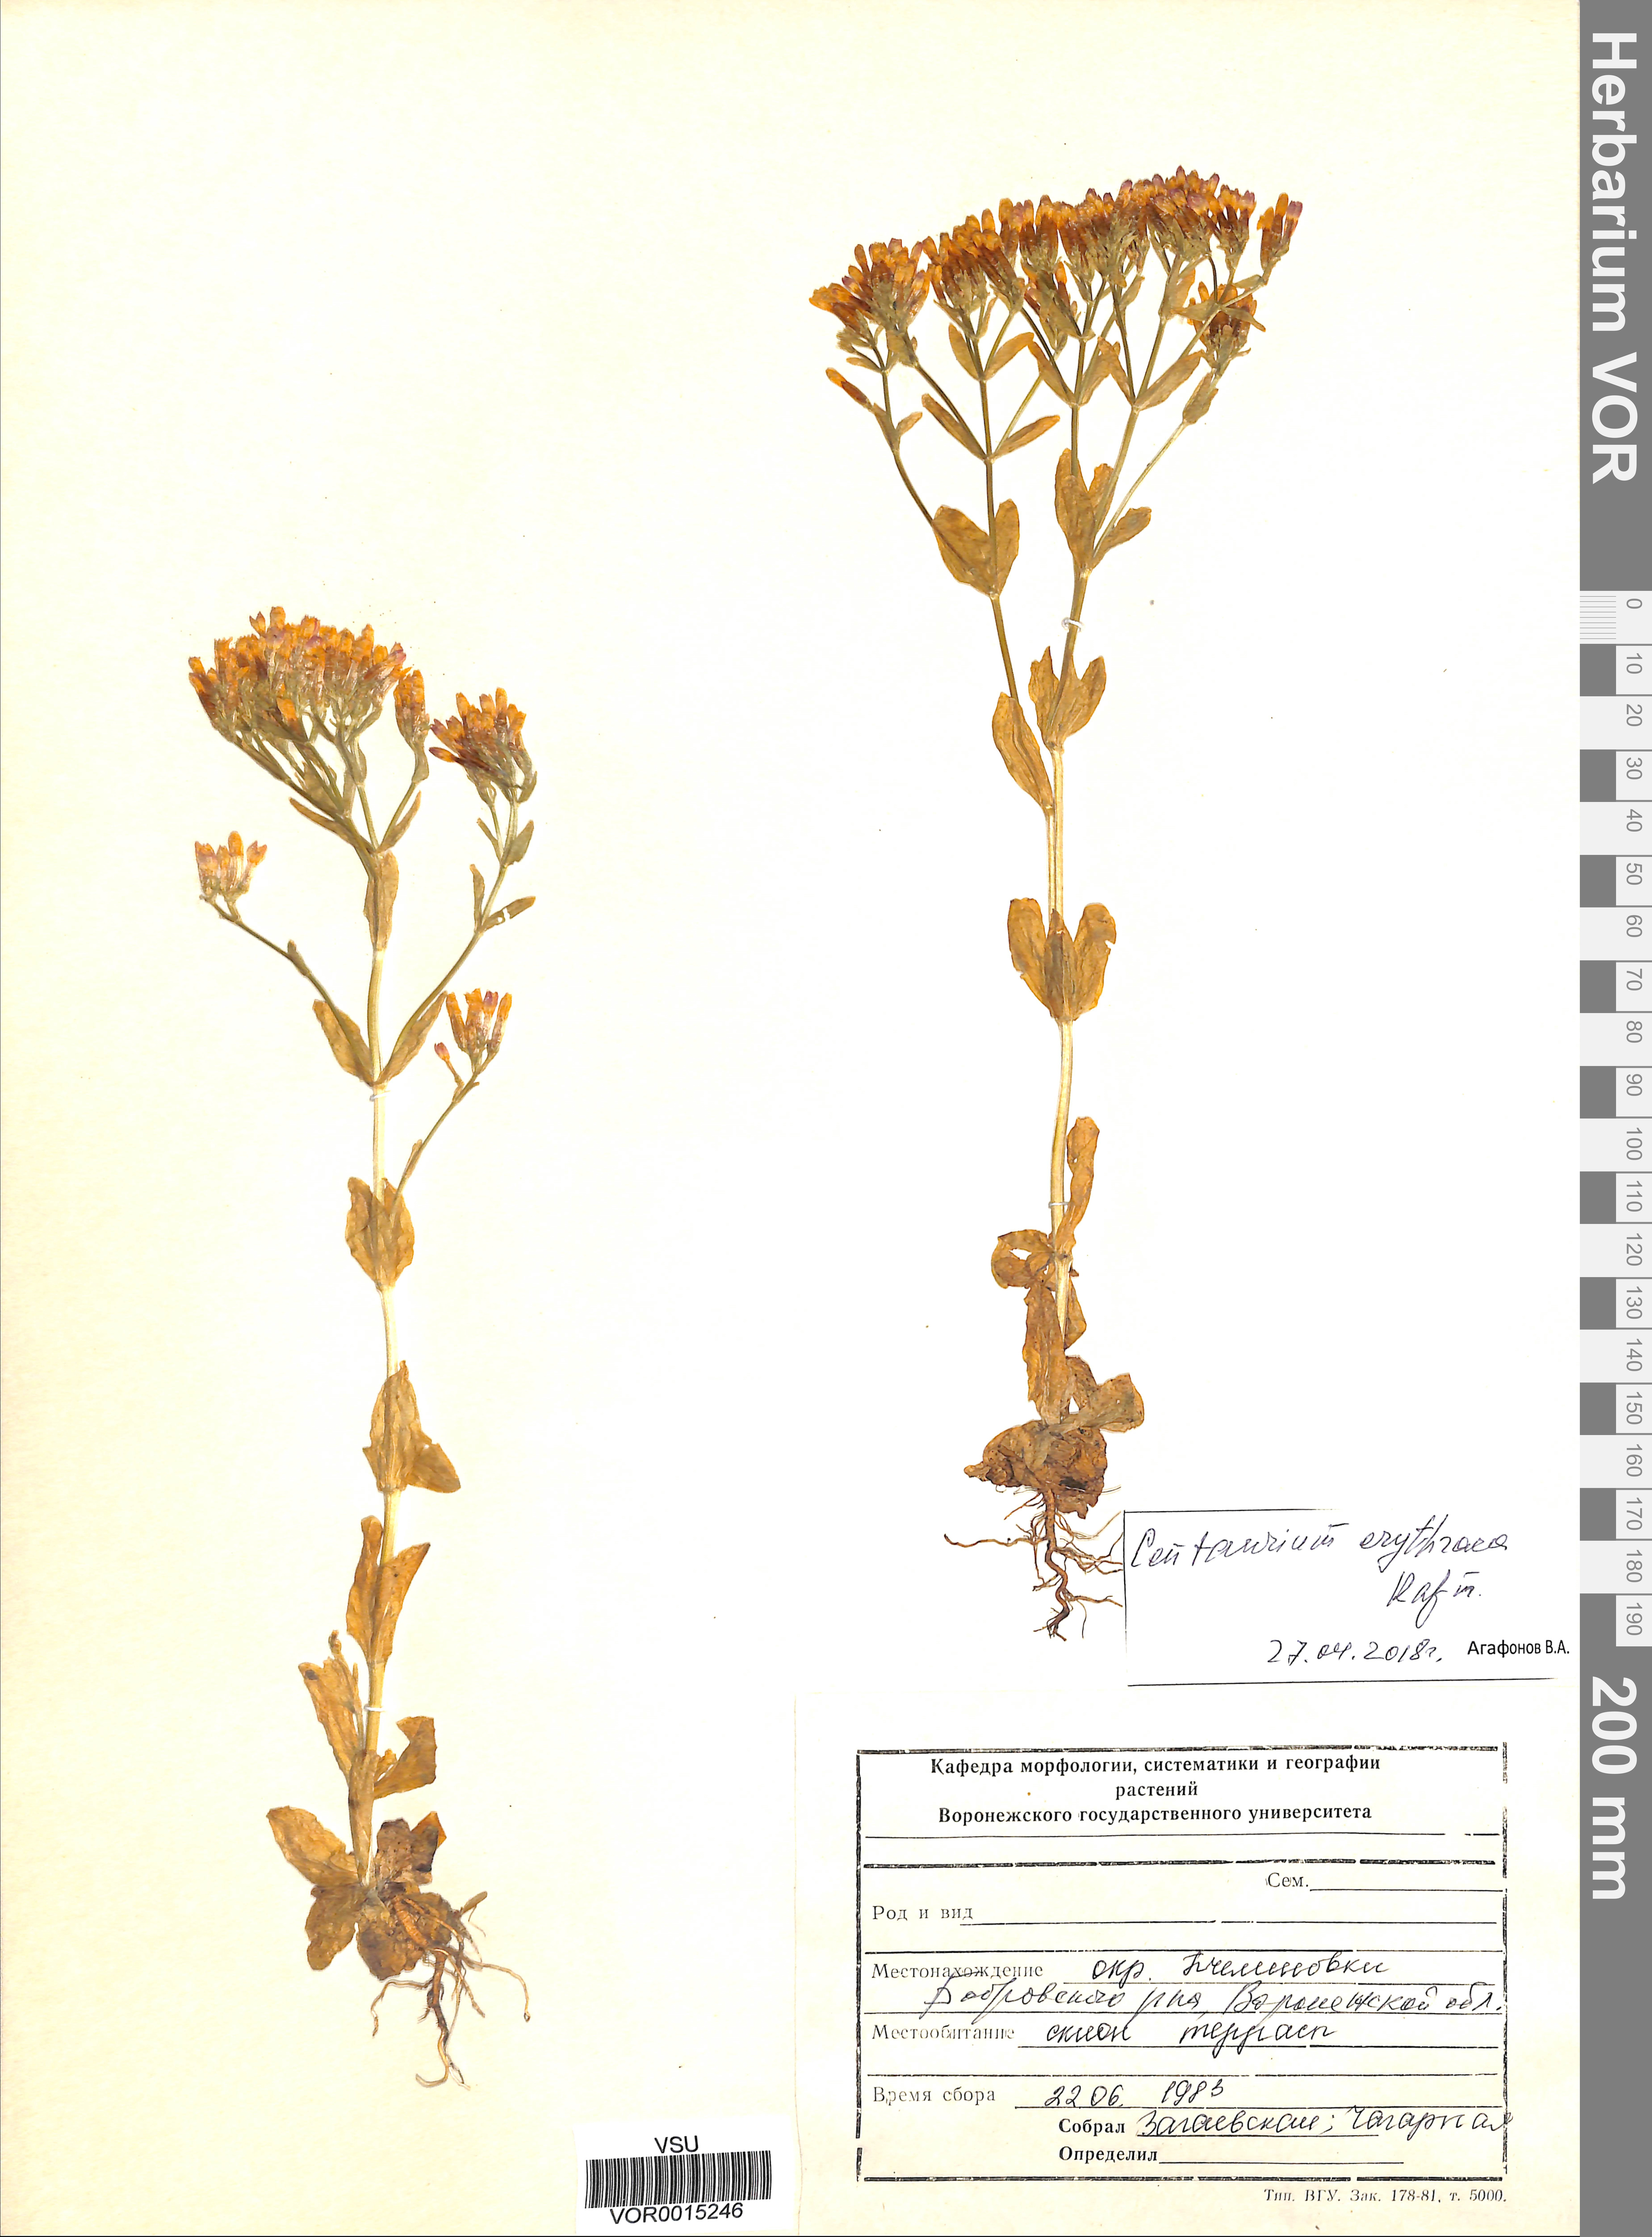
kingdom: Plantae
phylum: Tracheophyta
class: Magnoliopsida
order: Gentianales
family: Gentianaceae
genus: Centaurium
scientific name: Centaurium erythraea
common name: Common centaury
